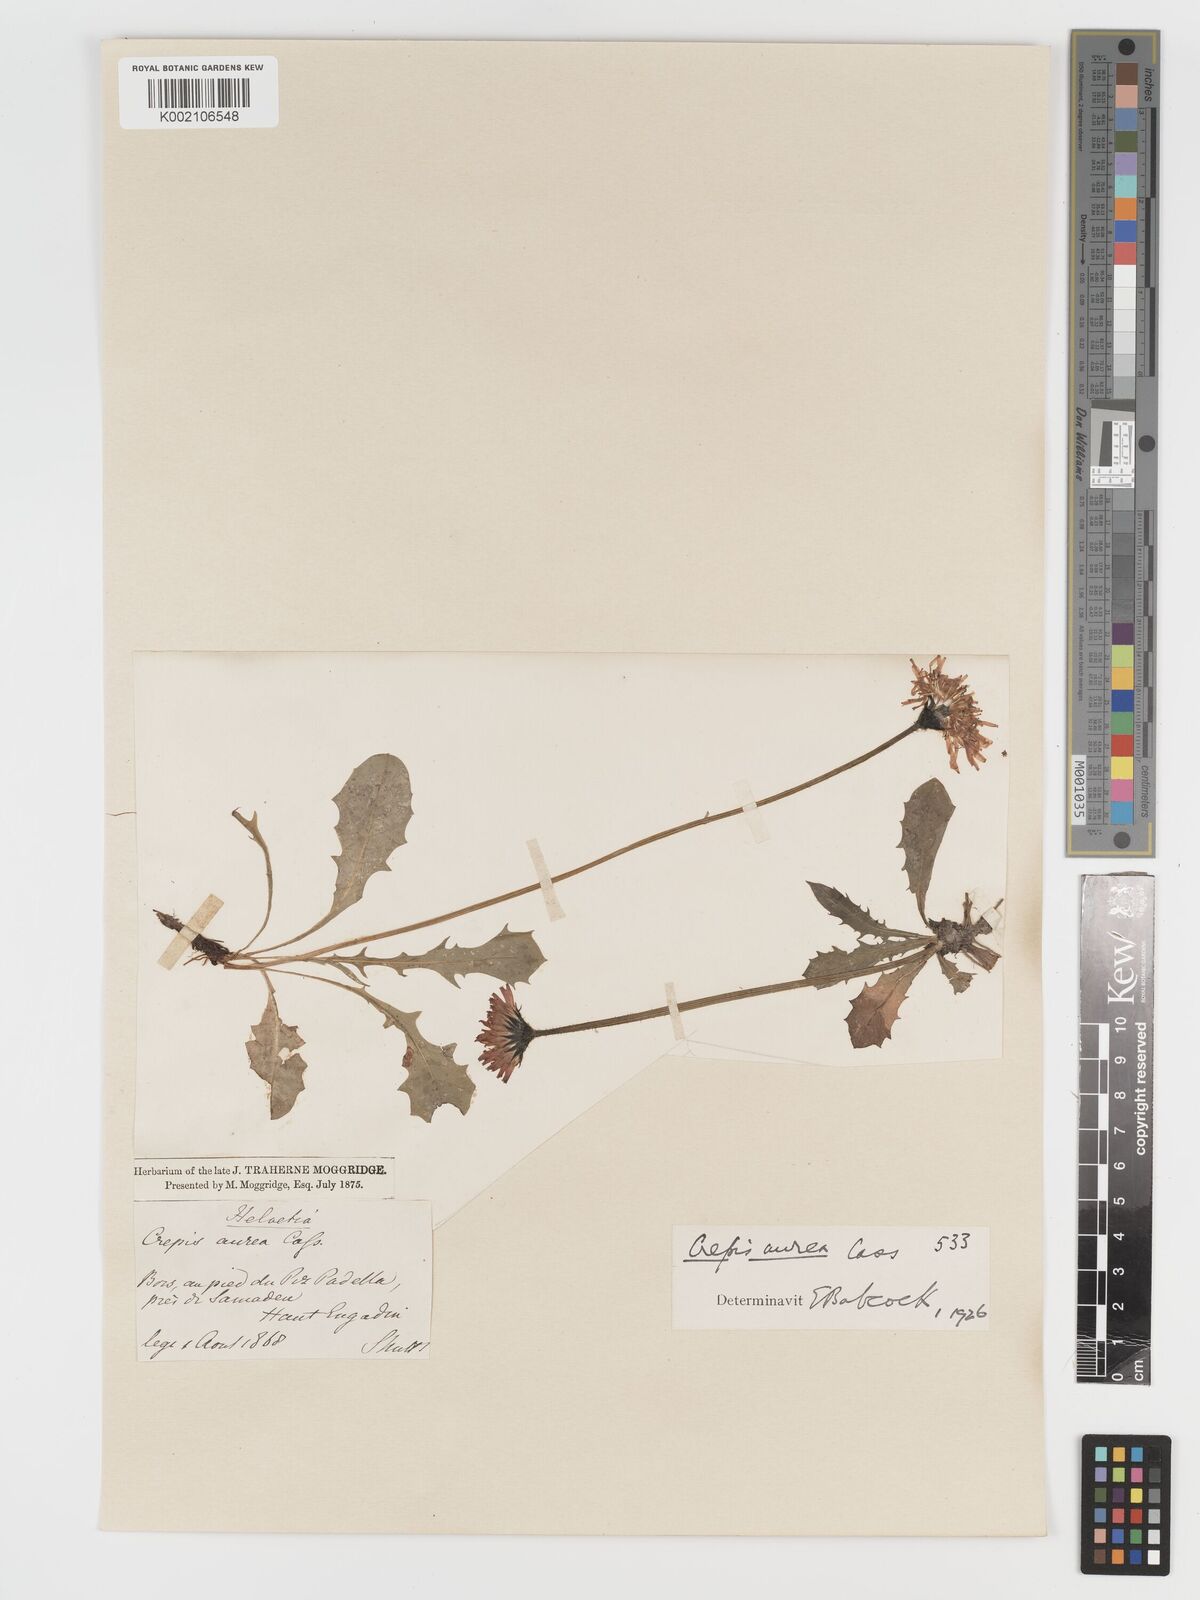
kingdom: Plantae
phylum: Tracheophyta
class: Magnoliopsida
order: Asterales
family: Asteraceae
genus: Crepis
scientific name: Crepis aurea
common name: Golden hawk's-beard
